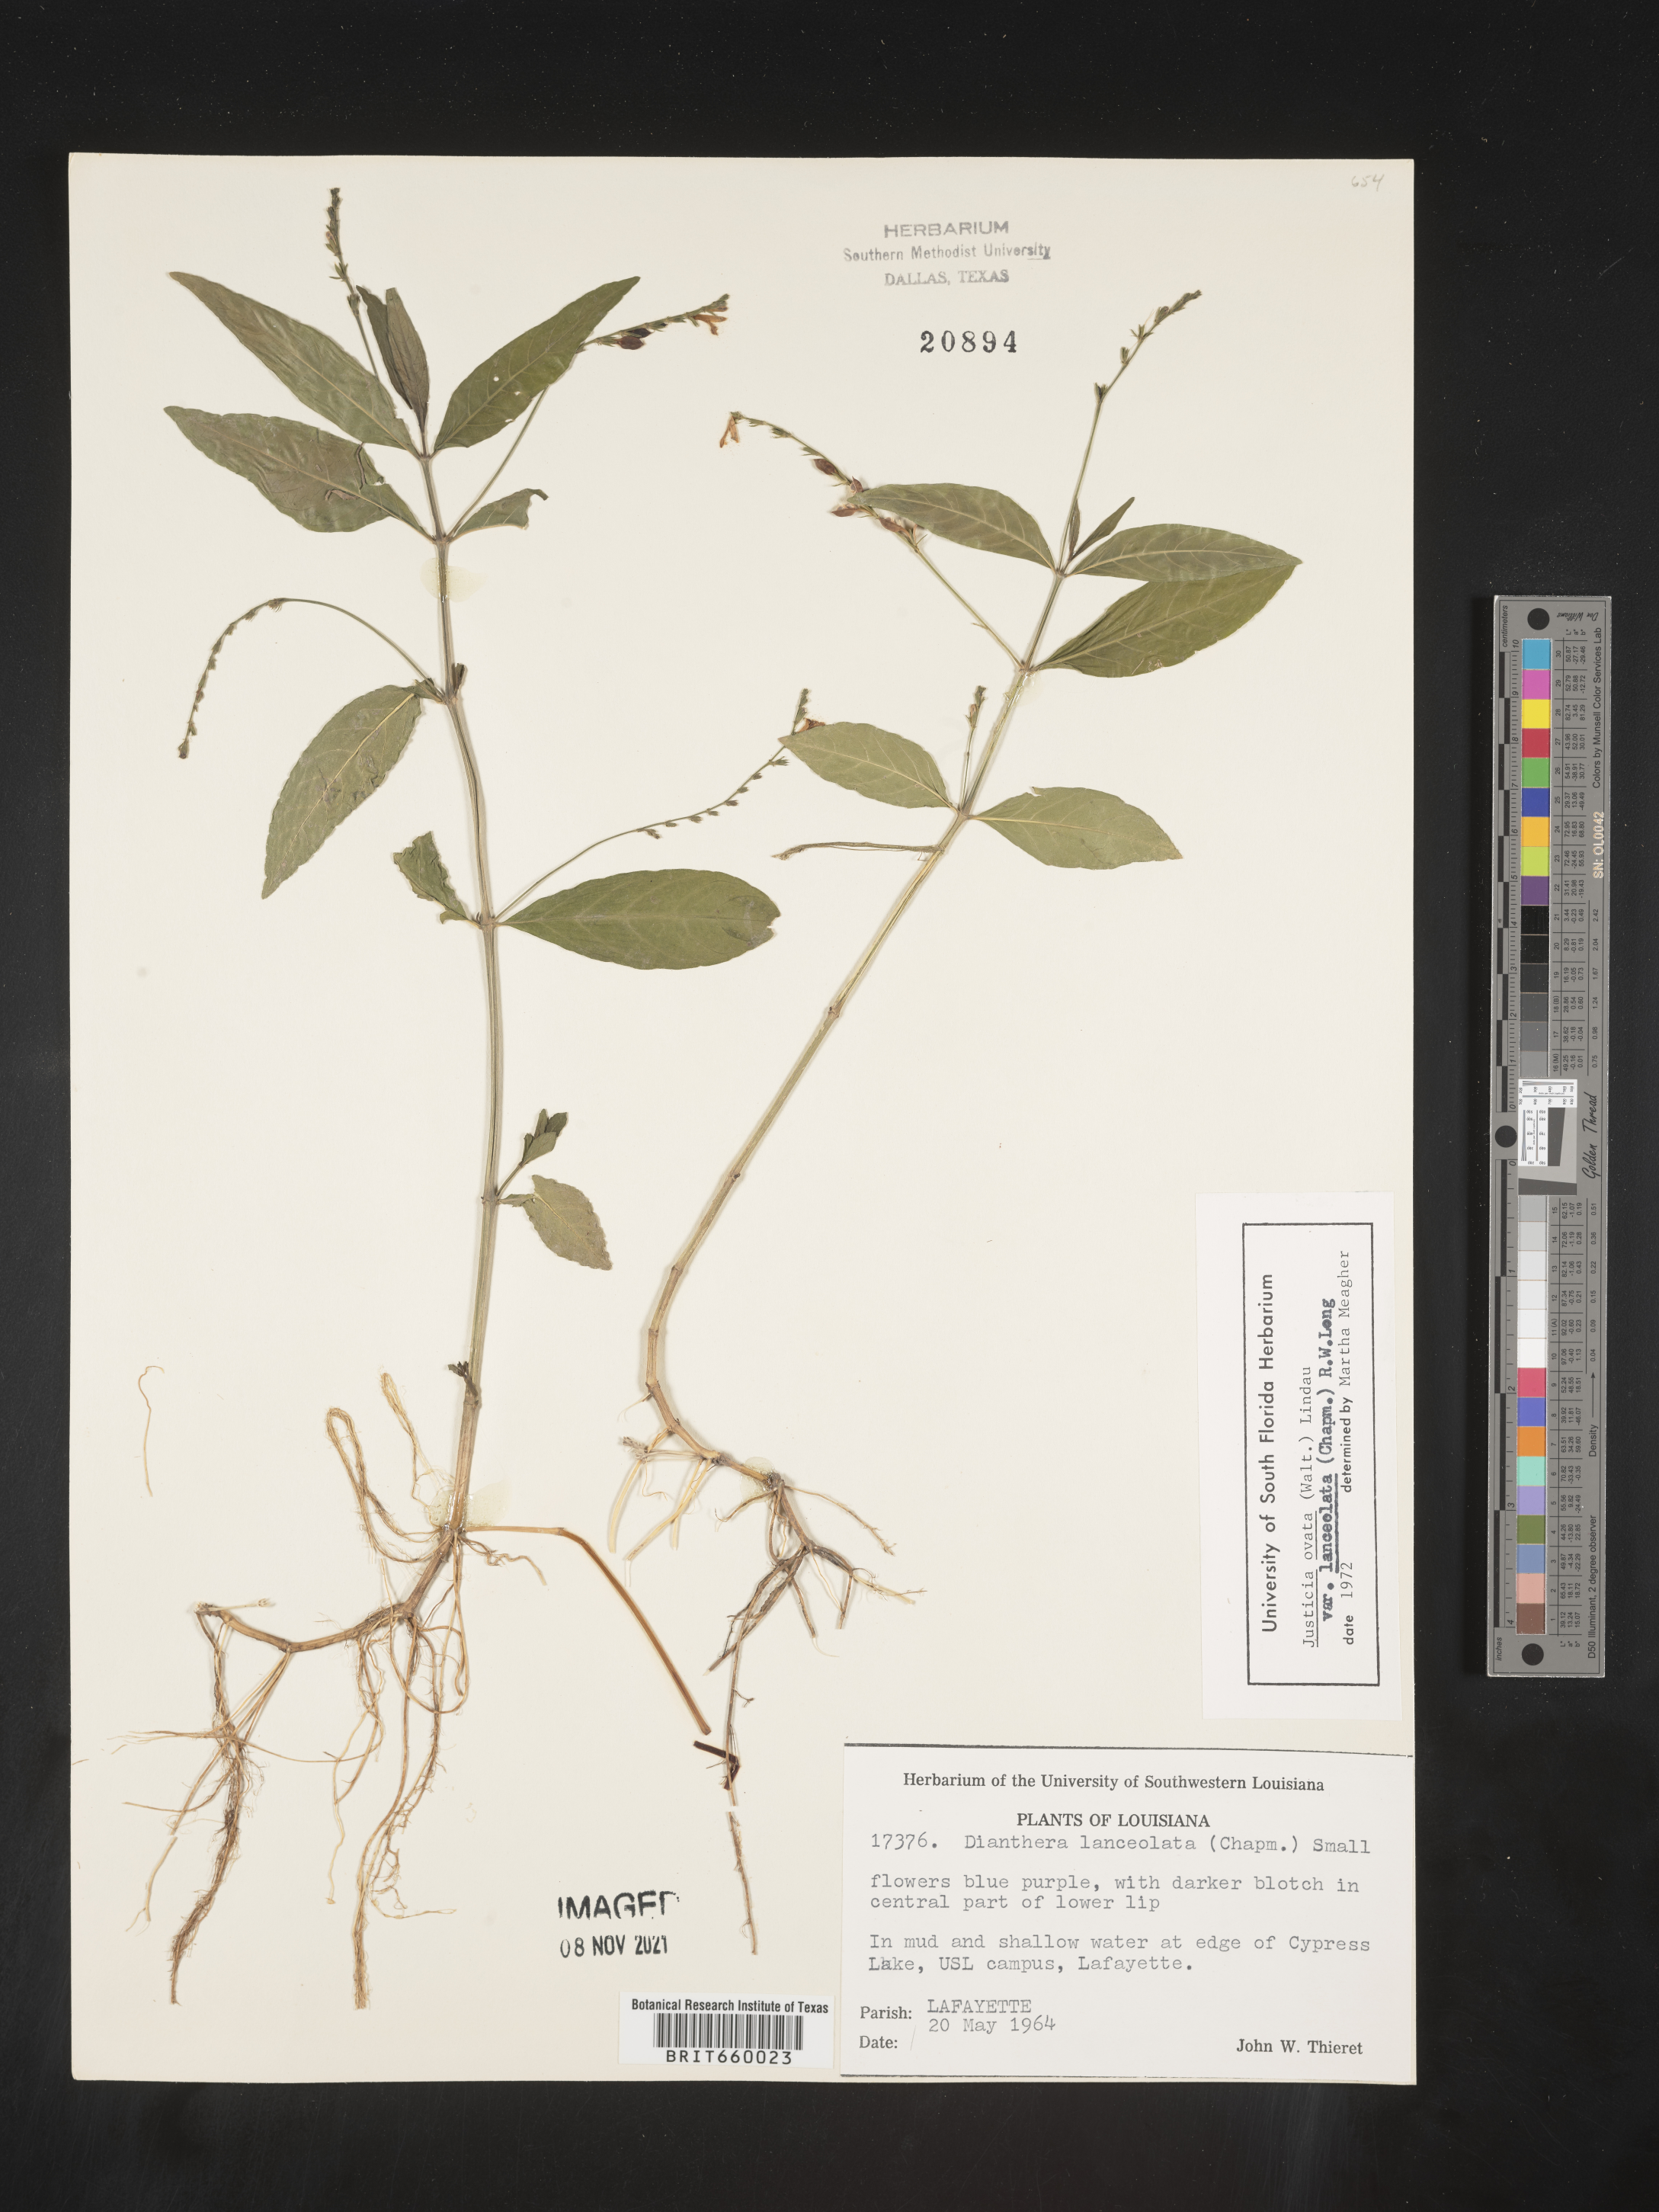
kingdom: Plantae
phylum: Tracheophyta
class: Magnoliopsida
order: Lamiales
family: Acanthaceae
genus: Justicia
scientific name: Justicia lanceolata
